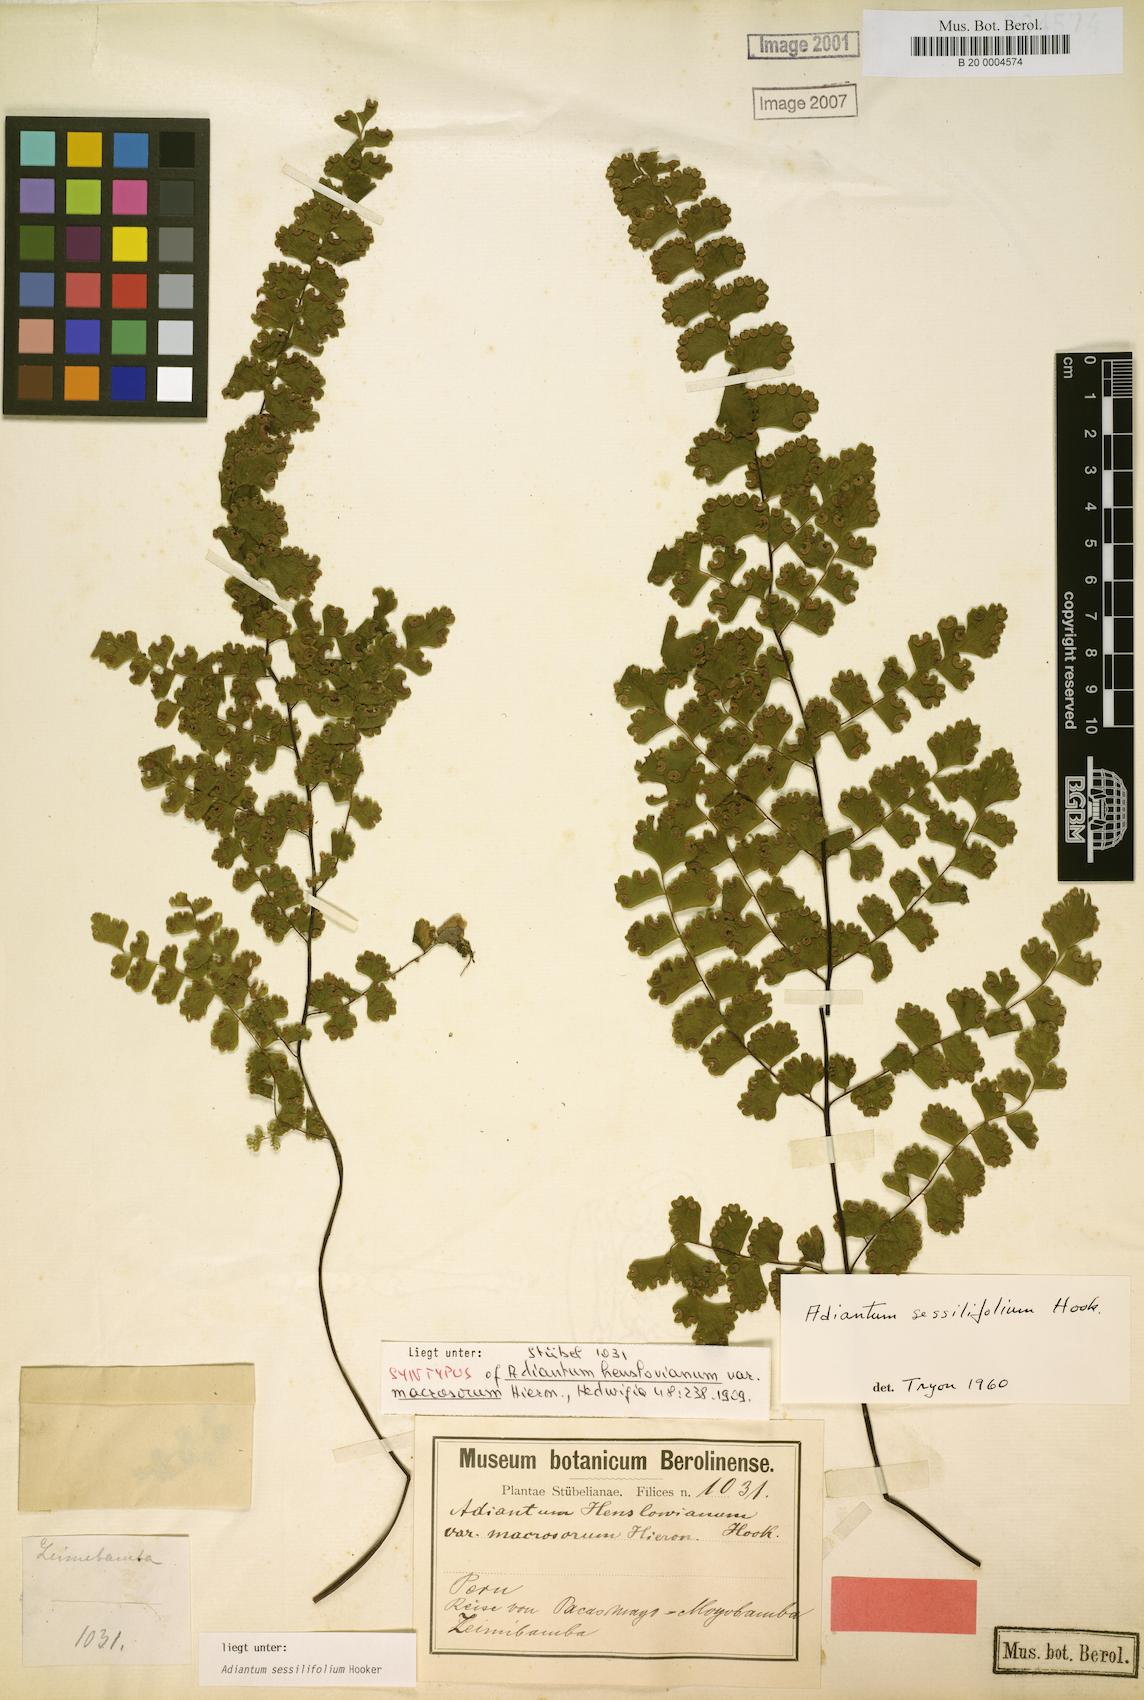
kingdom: Plantae
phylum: Tracheophyta
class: Polypodiopsida
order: Polypodiales
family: Pteridaceae
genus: Adiantum
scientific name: Adiantum henslovianum
